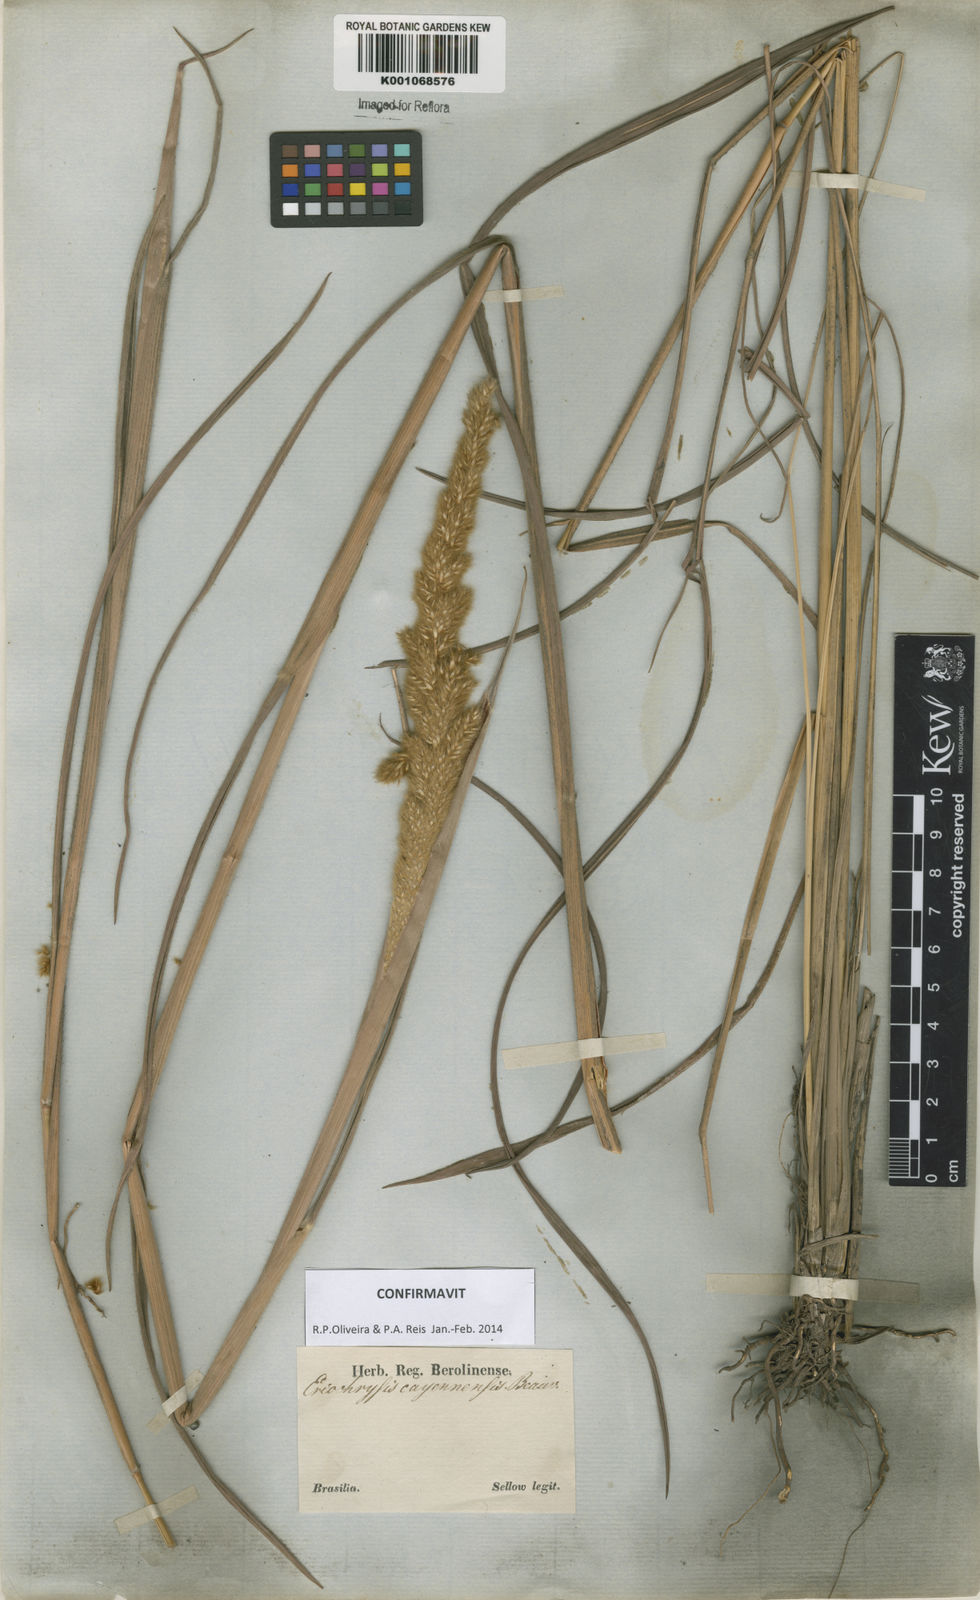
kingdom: Plantae
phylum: Tracheophyta
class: Liliopsida
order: Poales
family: Poaceae
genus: Eriochrysis
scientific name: Eriochrysis cayennensis
